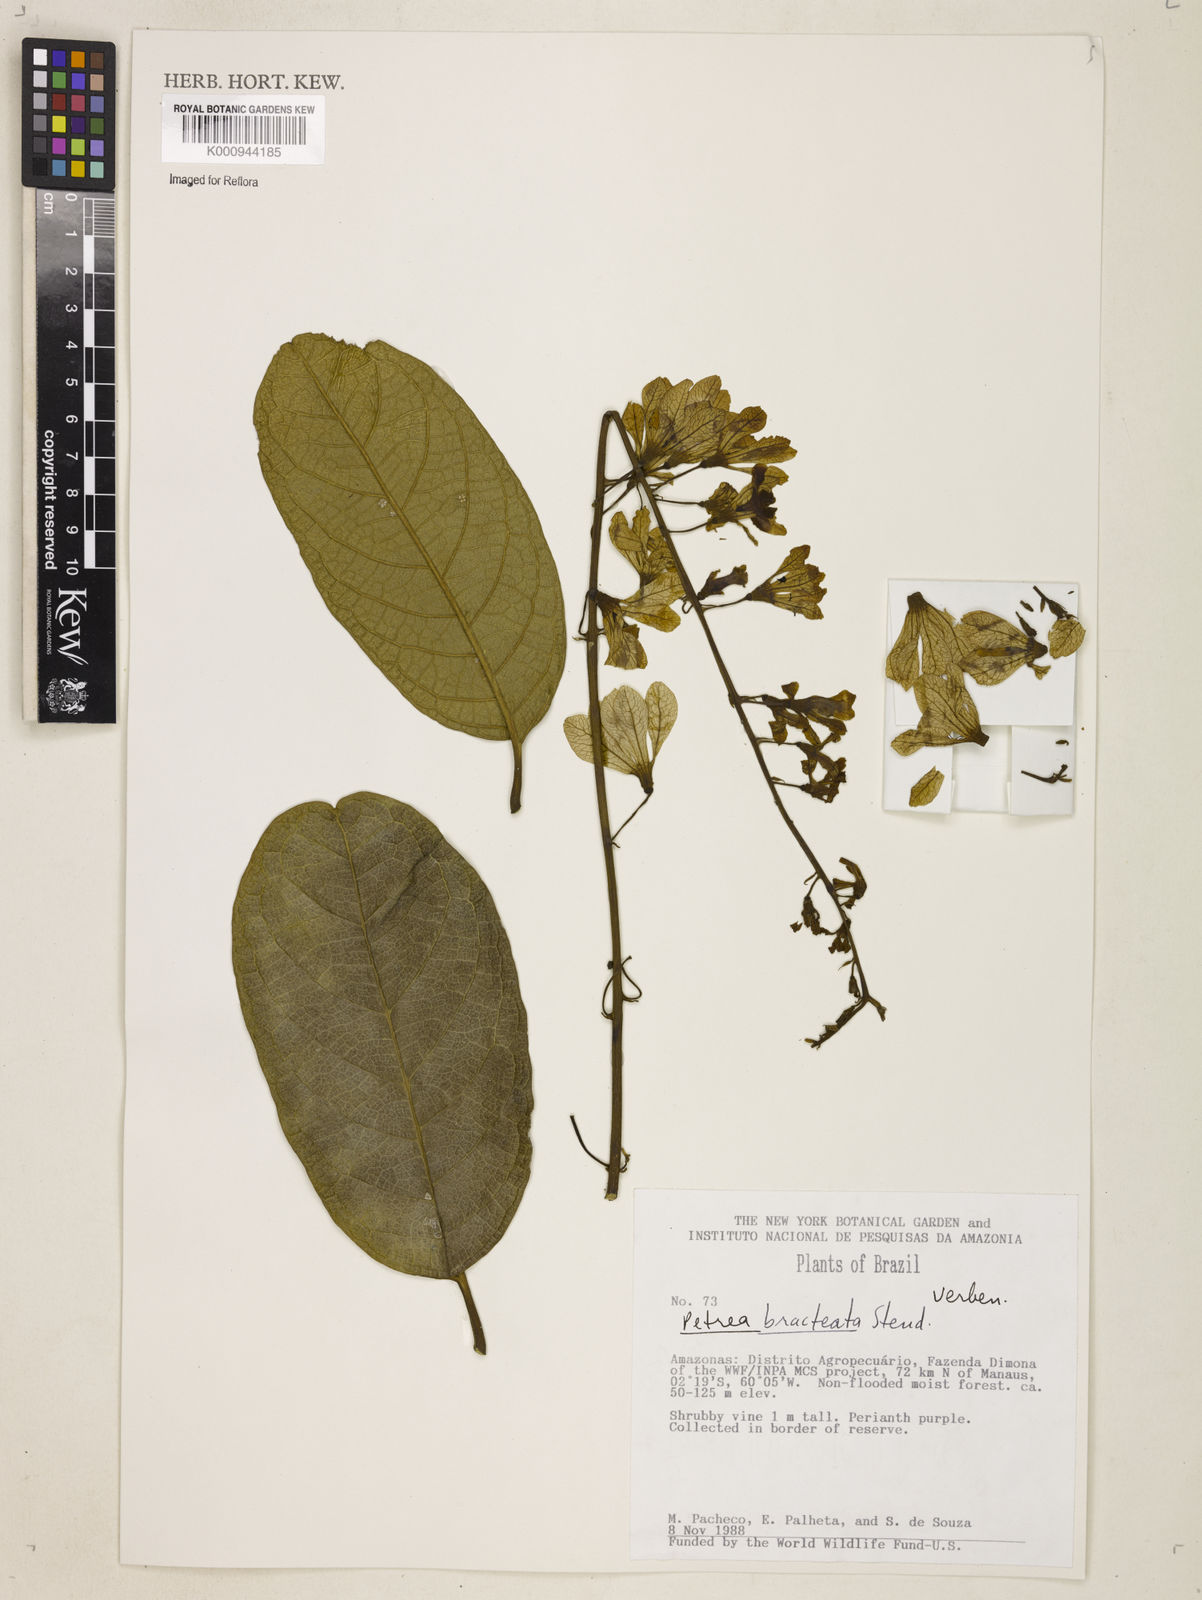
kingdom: Plantae
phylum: Tracheophyta
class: Magnoliopsida
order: Lamiales
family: Verbenaceae
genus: Petrea
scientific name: Petrea bracteata
